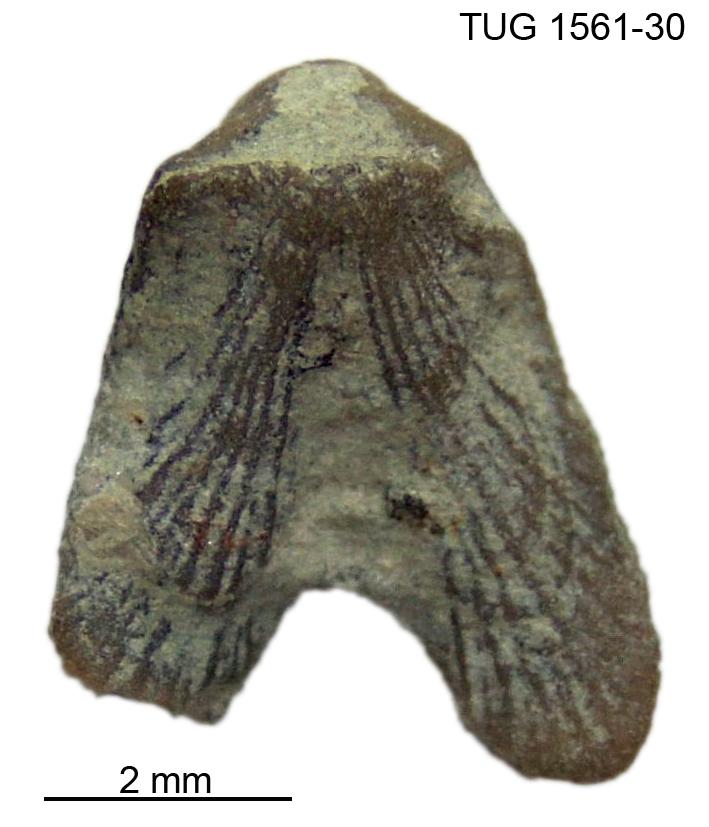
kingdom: Animalia
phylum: Brachiopoda
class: Rhynchonellata
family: Dicoelosiidae
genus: Dicoelosia
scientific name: Dicoelosia Bilobites verneuilianus
